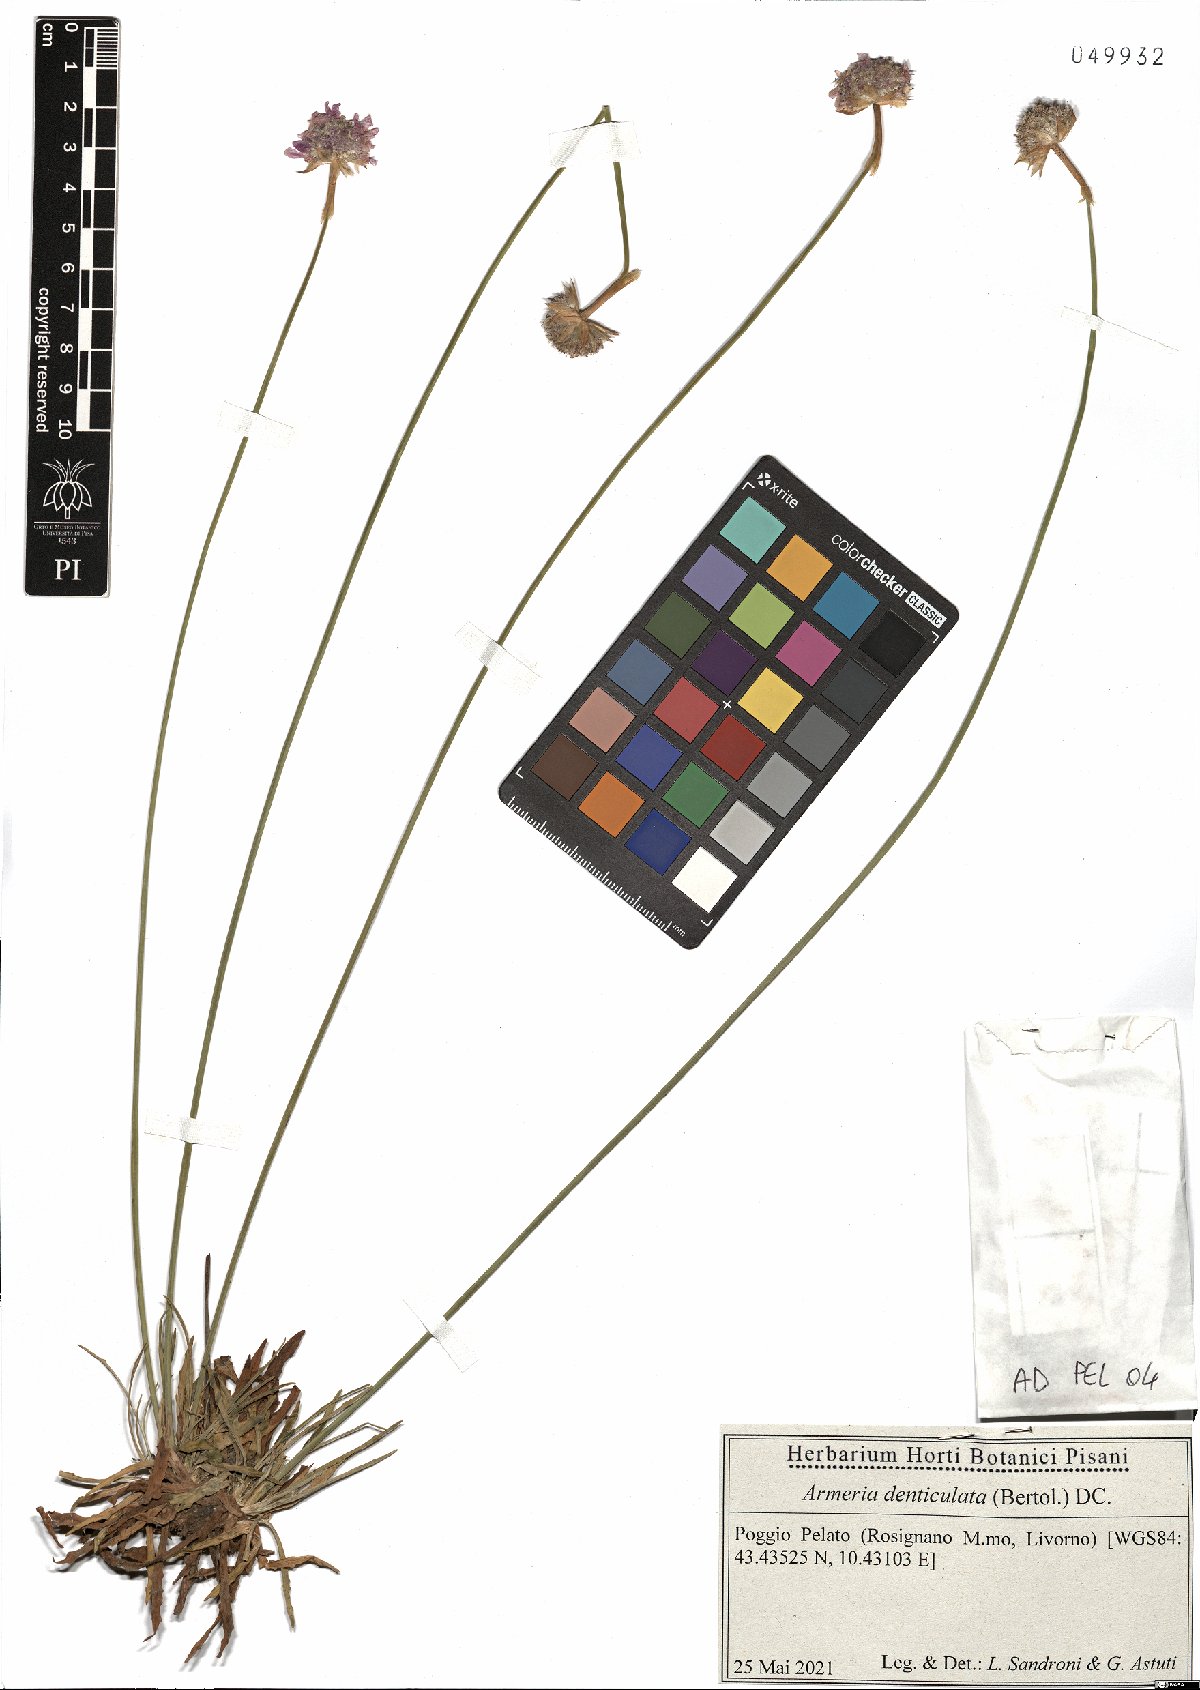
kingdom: Plantae
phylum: Tracheophyta
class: Magnoliopsida
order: Caryophyllales
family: Plumbaginaceae
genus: Armeria
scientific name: Armeria denticulata
